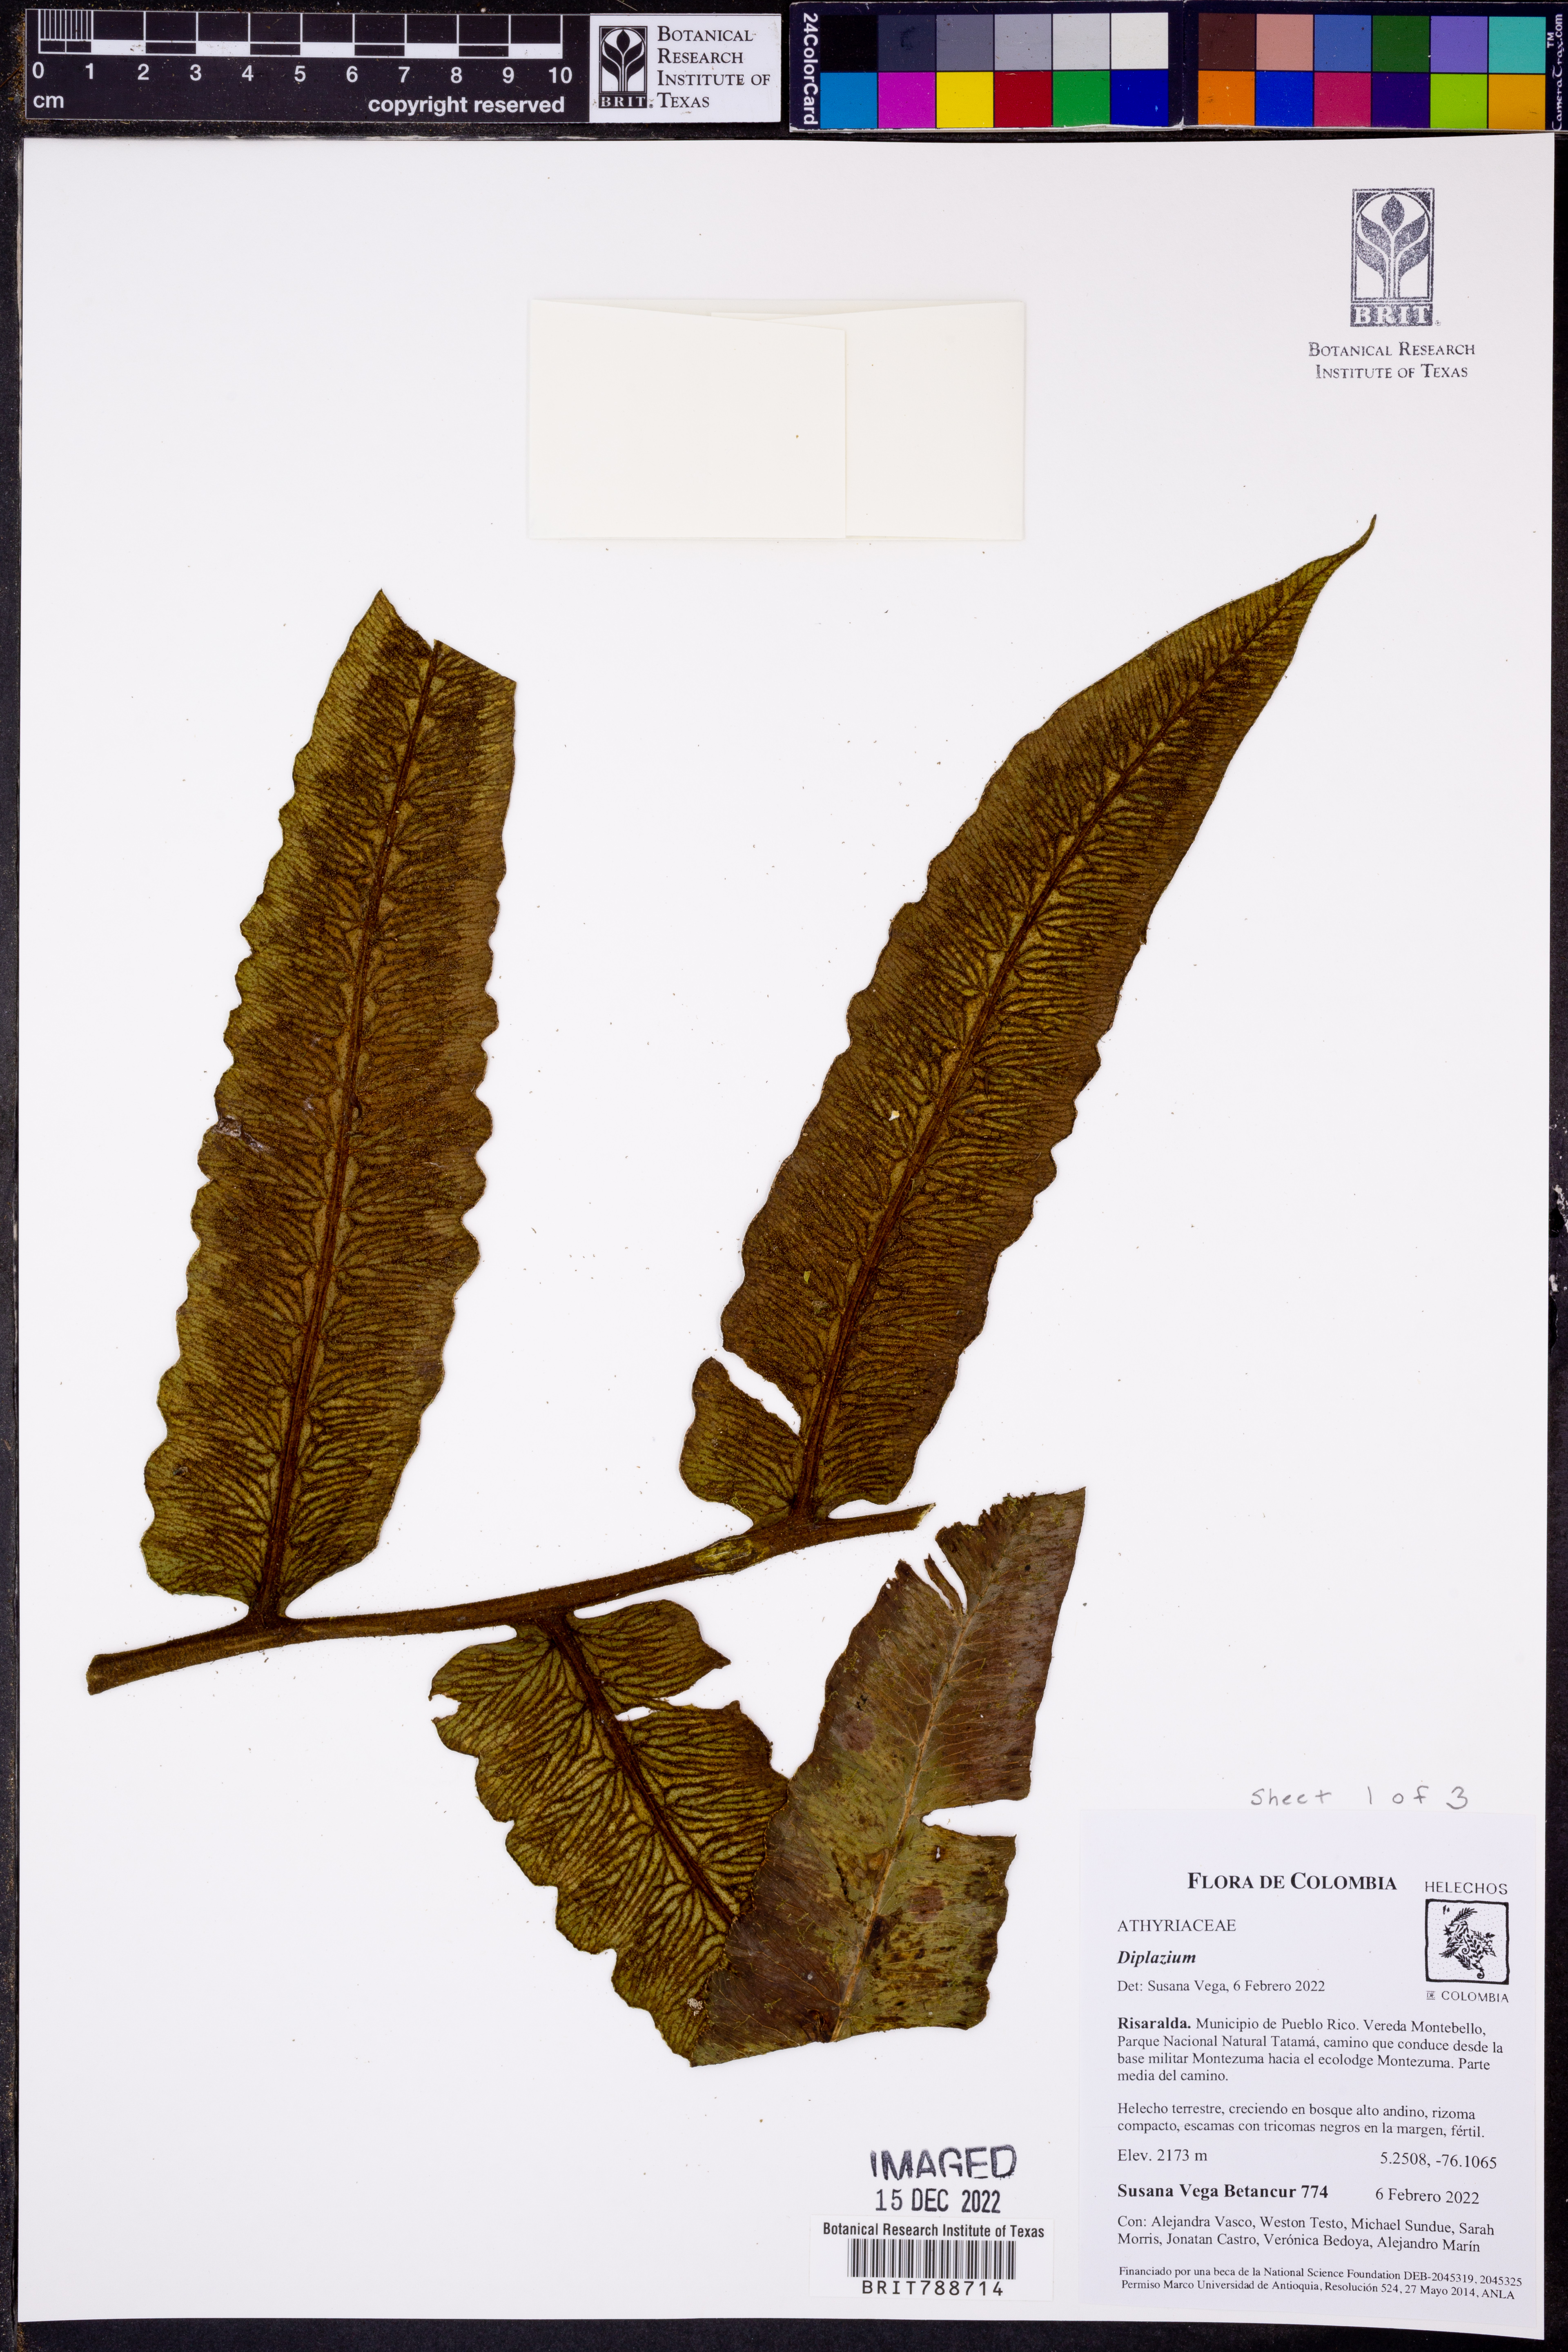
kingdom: Plantae
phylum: Tracheophyta
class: Polypodiopsida
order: Polypodiales
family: Athyriaceae
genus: Diplazium
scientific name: Diplazium macrodictyon
